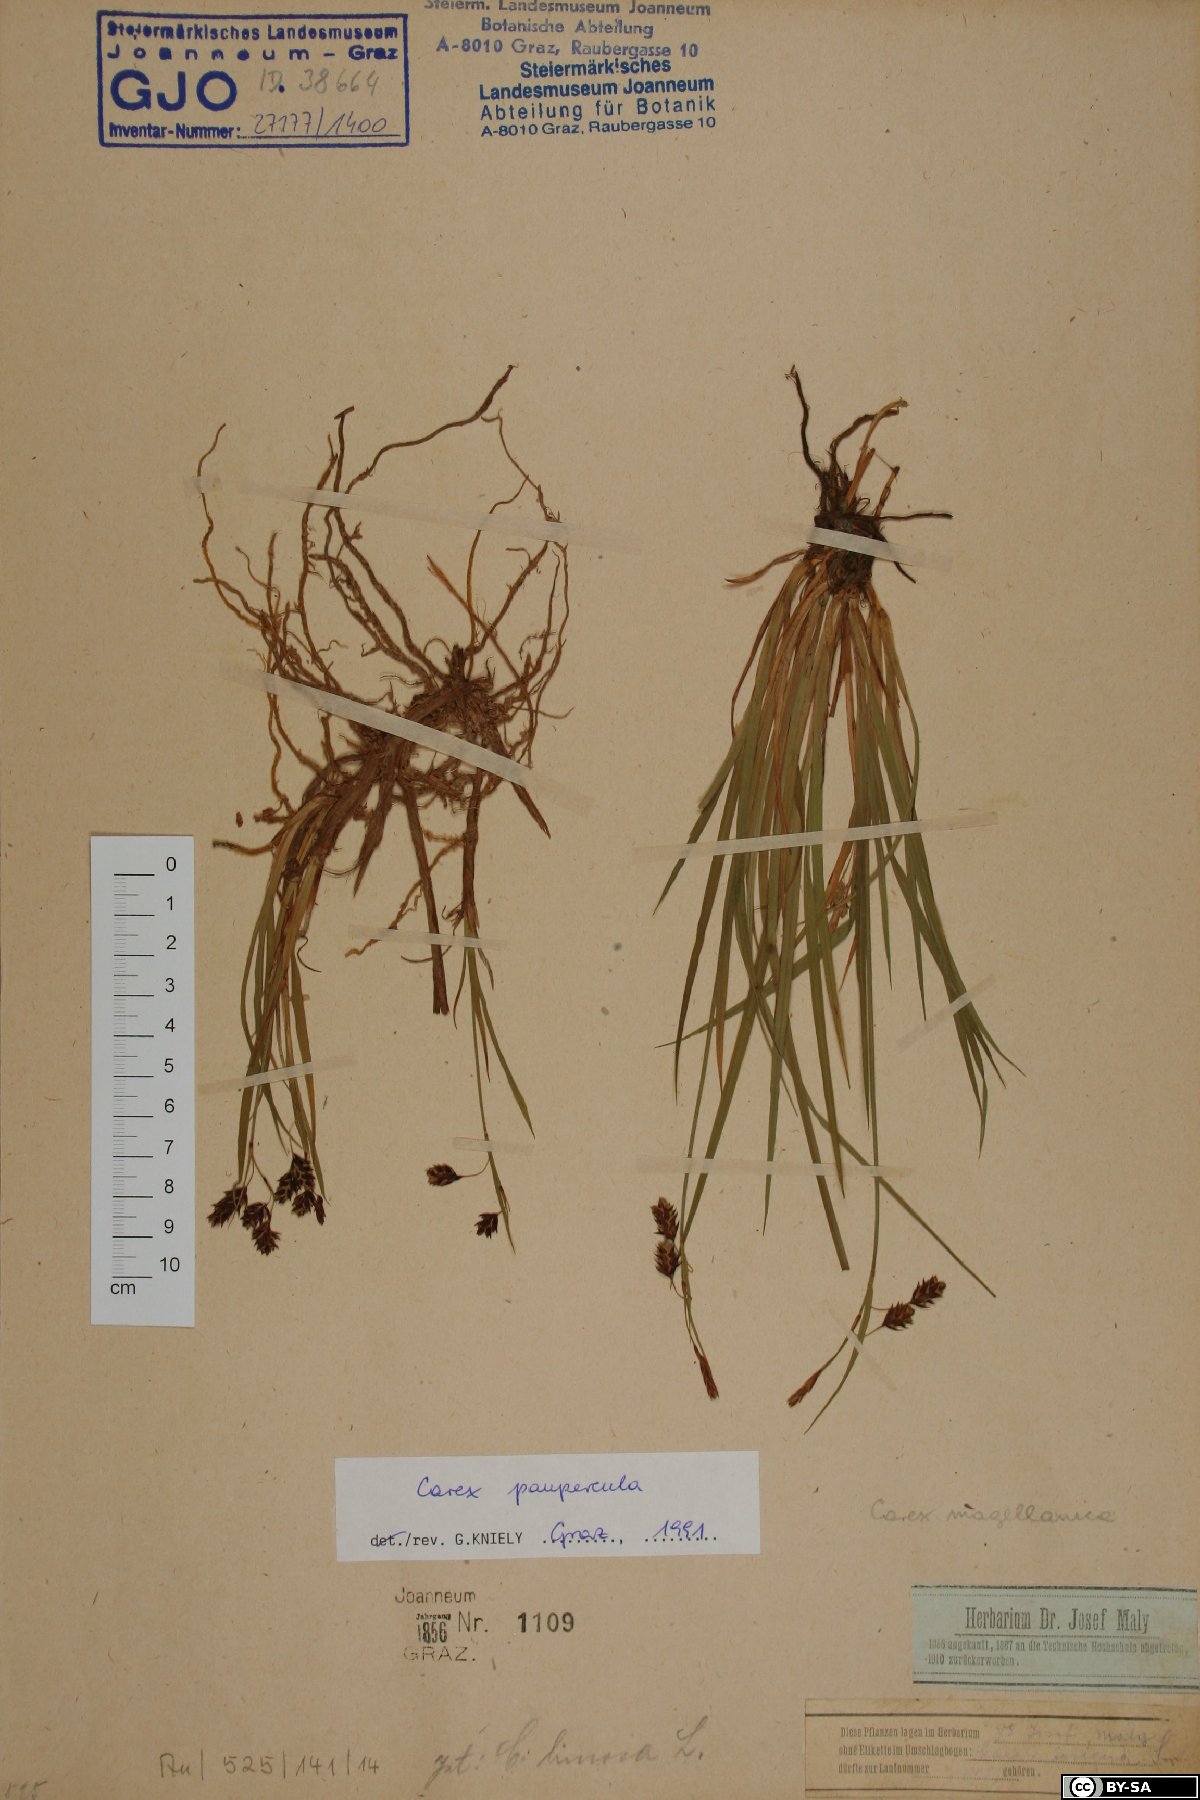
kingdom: Plantae
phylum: Tracheophyta
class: Liliopsida
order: Poales
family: Cyperaceae
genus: Carex
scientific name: Carex magellanica
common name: Bog sedge
